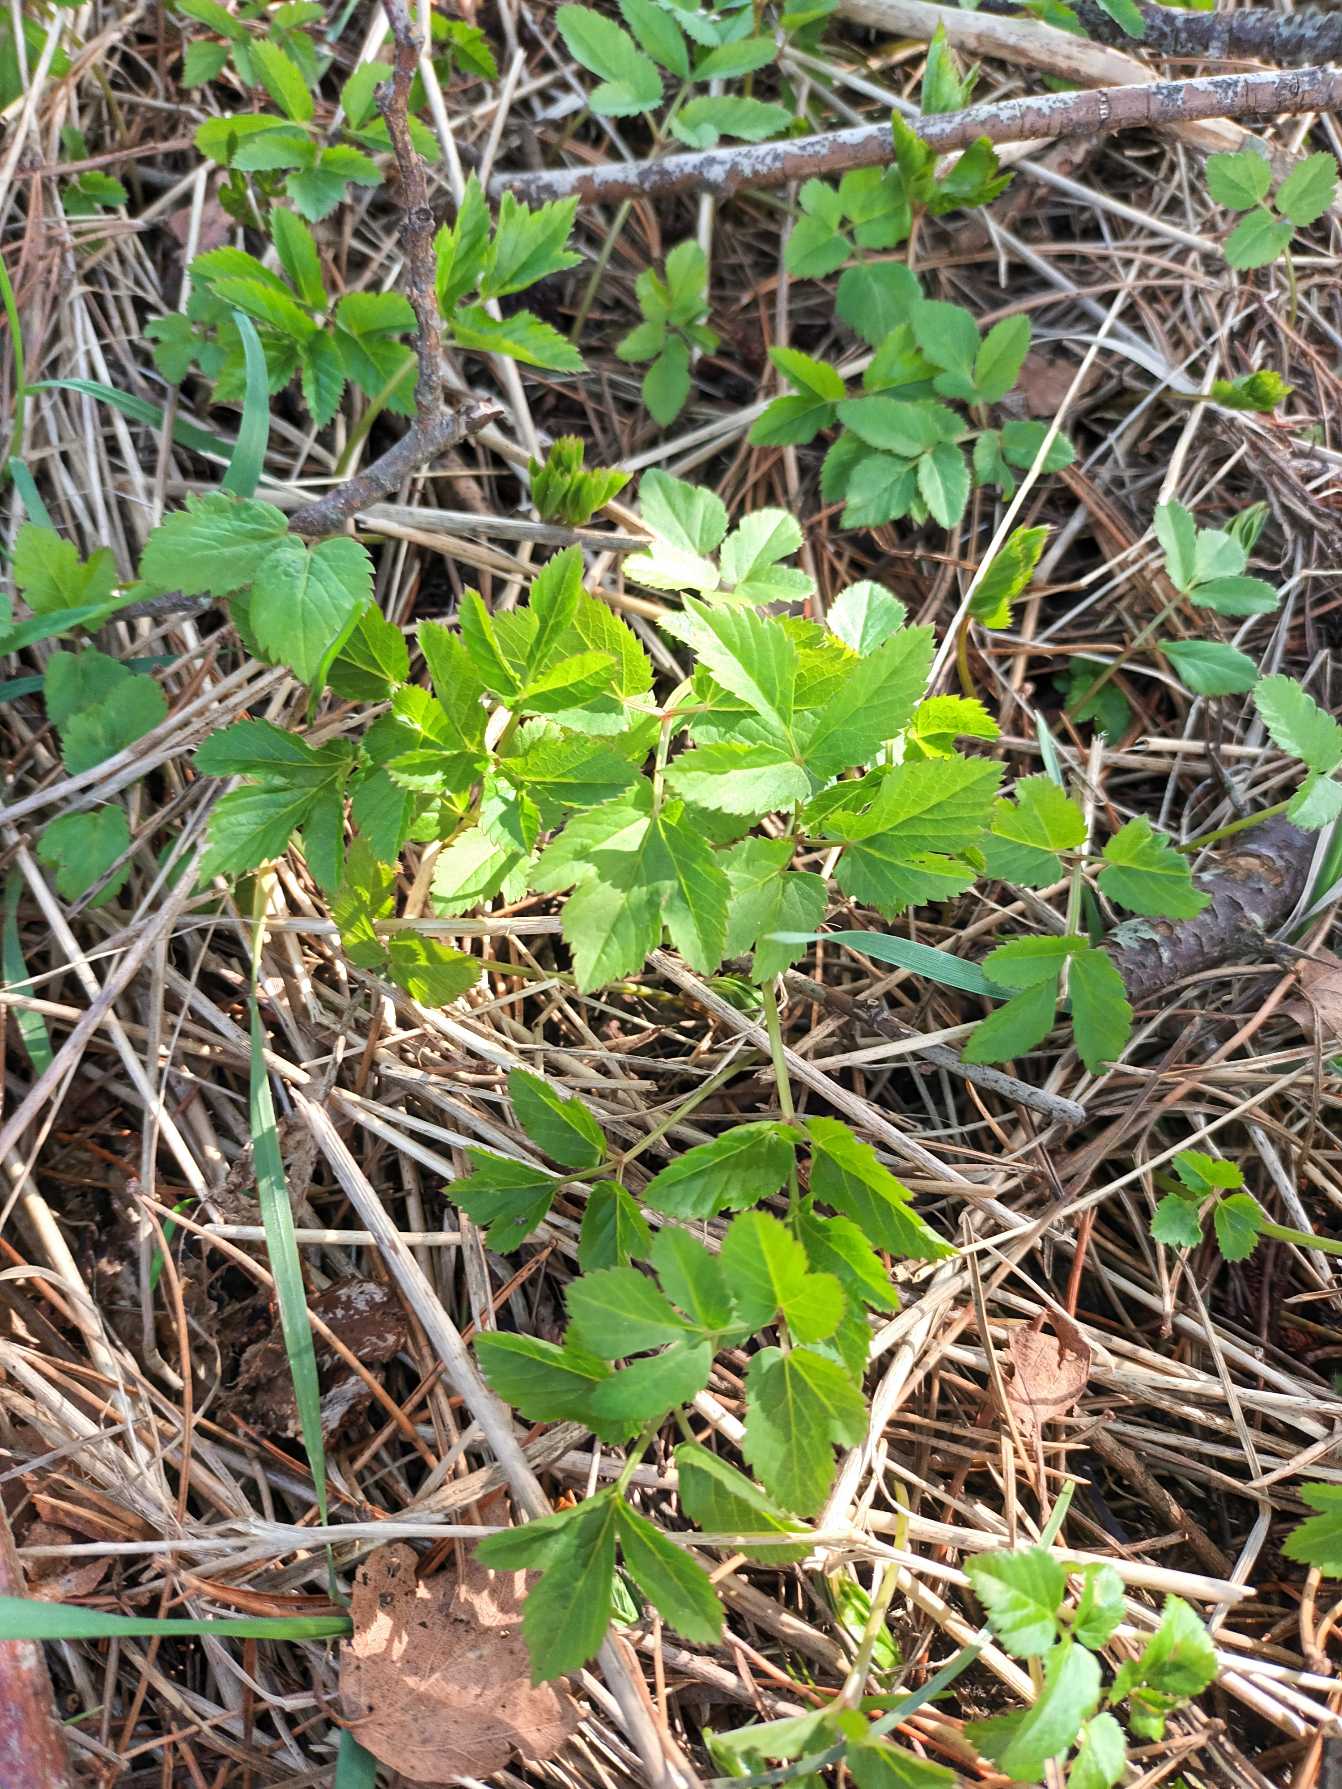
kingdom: Plantae
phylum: Tracheophyta
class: Magnoliopsida
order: Apiales
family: Apiaceae
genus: Aegopodium
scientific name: Aegopodium podagraria
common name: Skvalderkål
